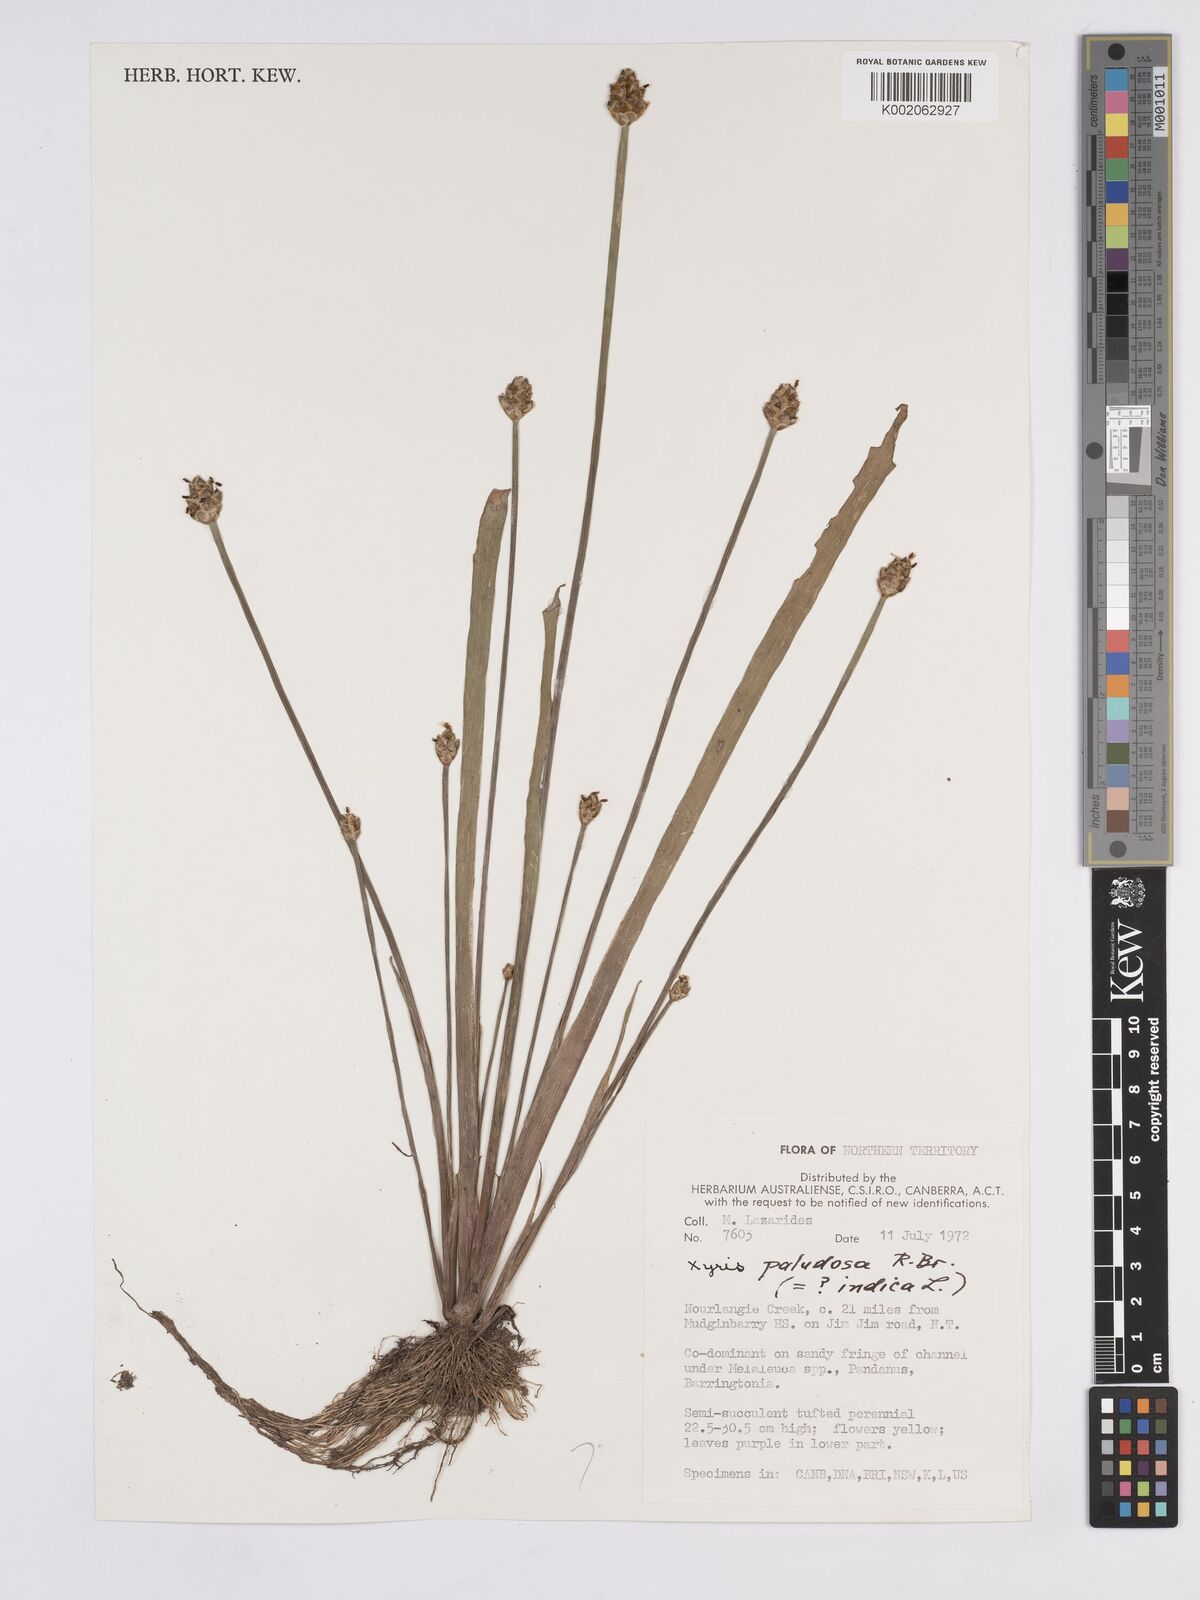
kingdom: Plantae
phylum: Tracheophyta
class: Liliopsida
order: Poales
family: Xyridaceae
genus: Xyris
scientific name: Xyris indica
